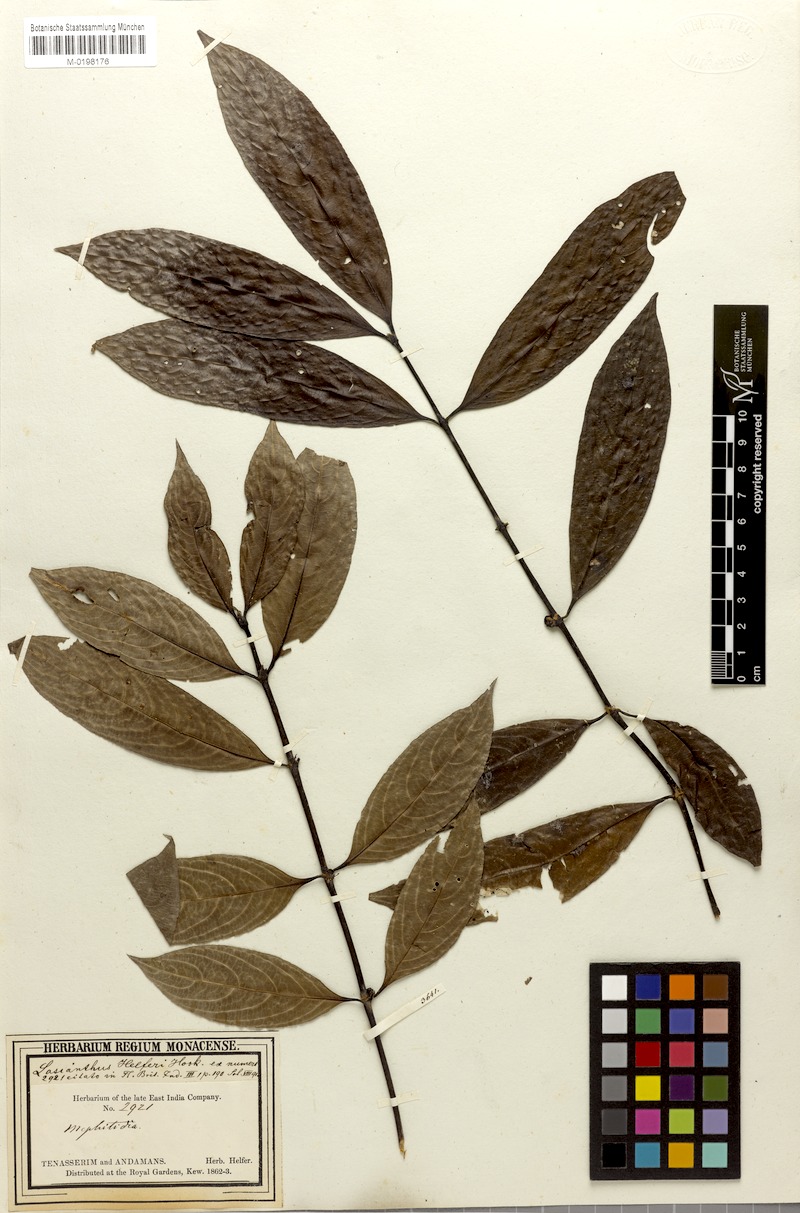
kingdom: Plantae
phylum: Tracheophyta
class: Magnoliopsida
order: Gentianales
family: Rubiaceae
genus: Lasianthus
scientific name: Lasianthus helferi
